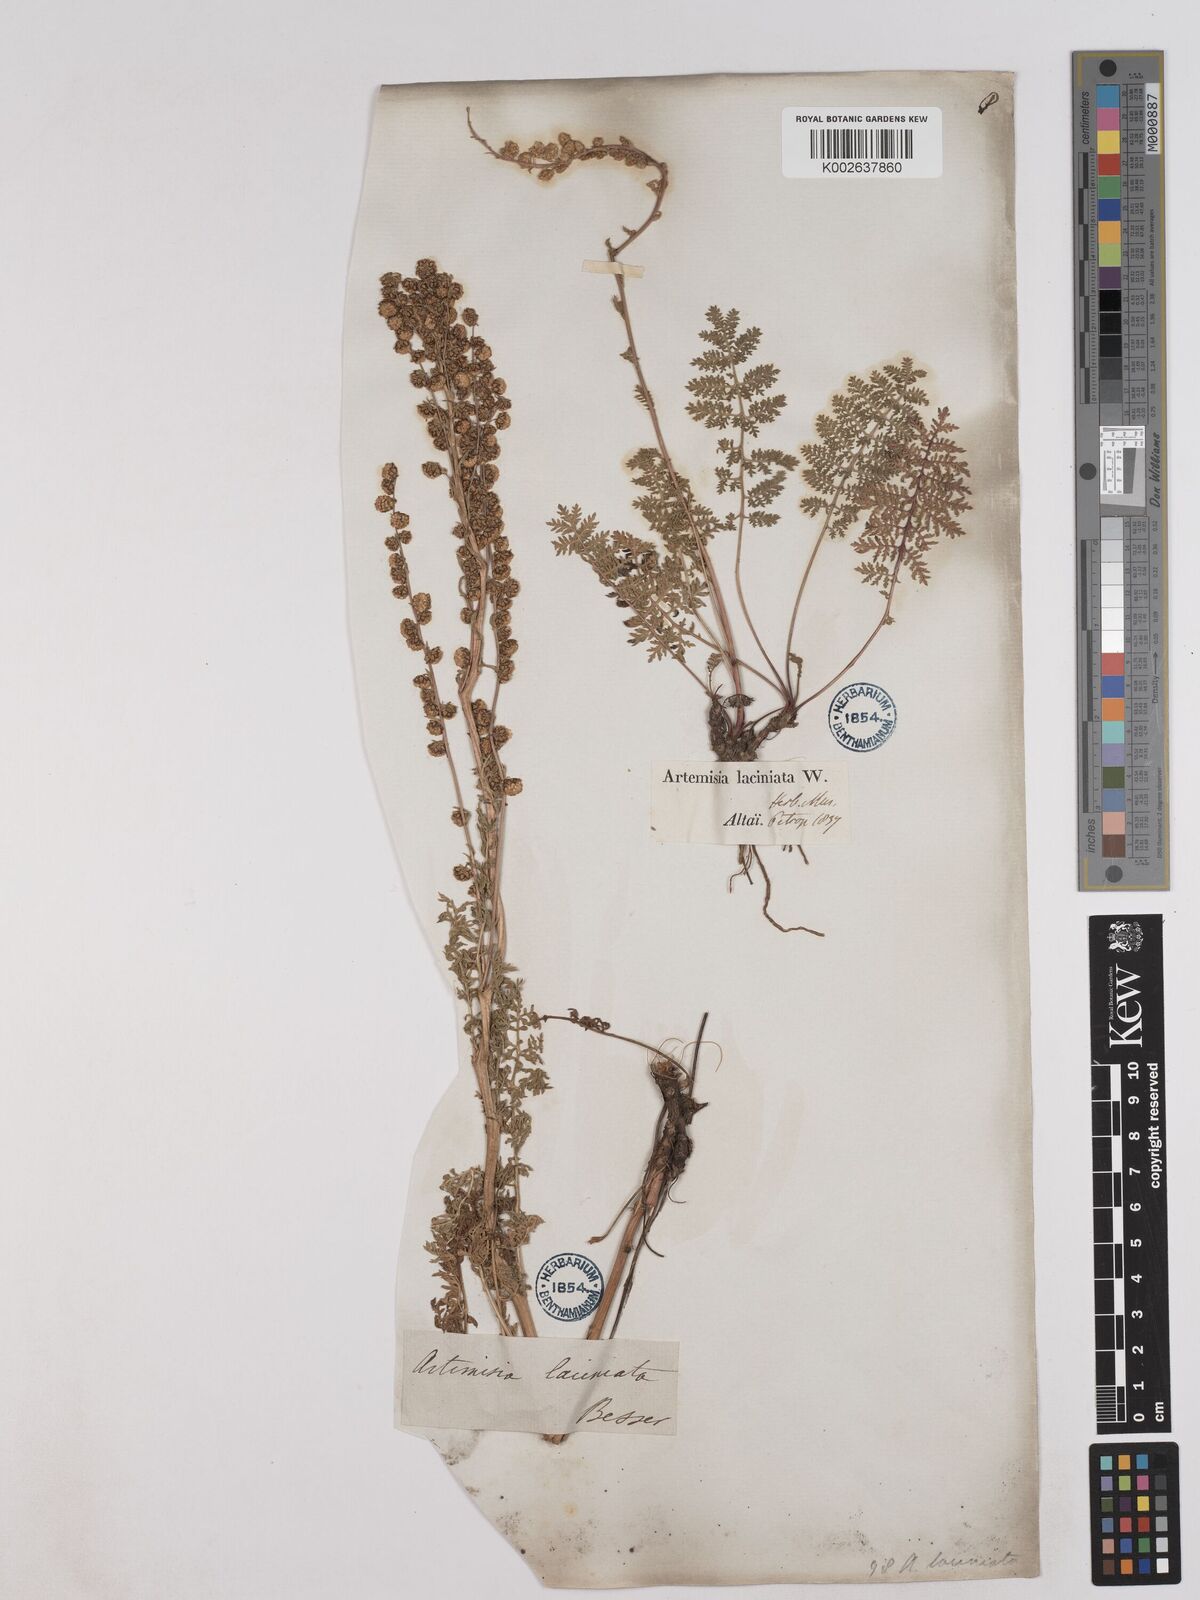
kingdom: Plantae
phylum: Tracheophyta
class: Magnoliopsida
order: Asterales
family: Asteraceae
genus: Artemisia
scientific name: Artemisia laciniata
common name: Siberian wormwood
